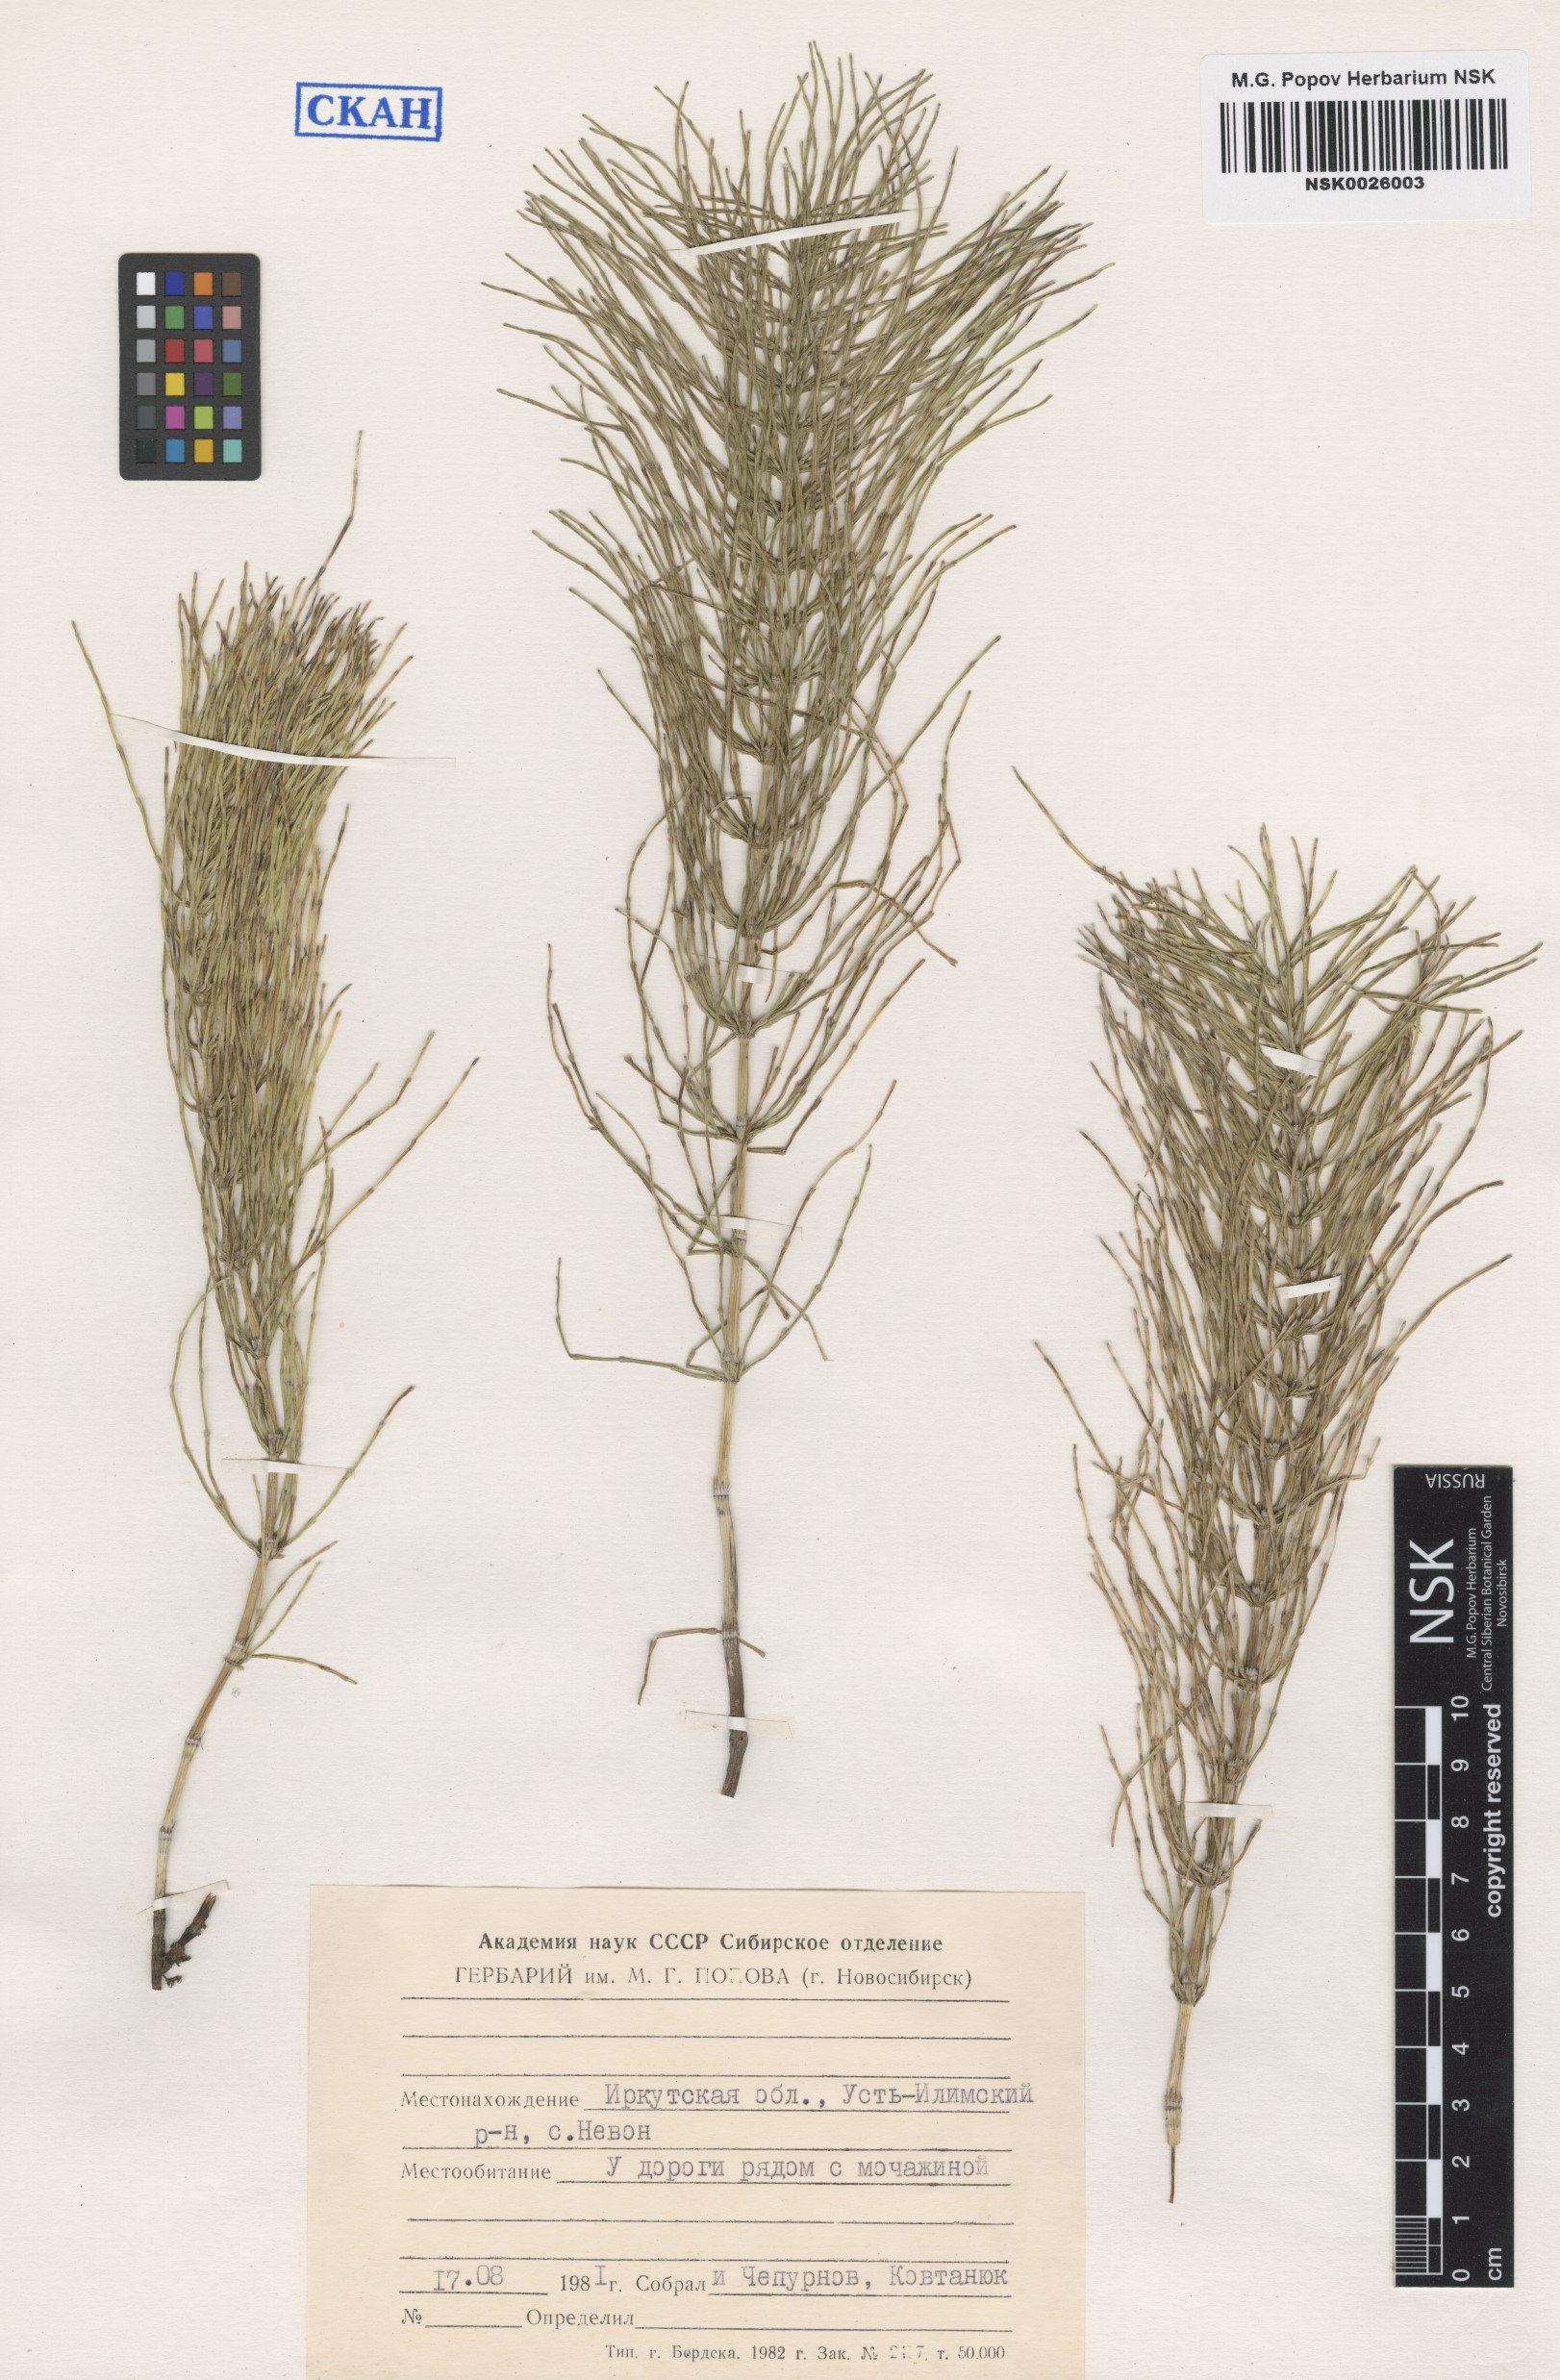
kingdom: Plantae
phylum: Tracheophyta
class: Polypodiopsida
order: Equisetales
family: Equisetaceae
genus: Equisetum
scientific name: Equisetum pratense
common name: Meadow horsetail
